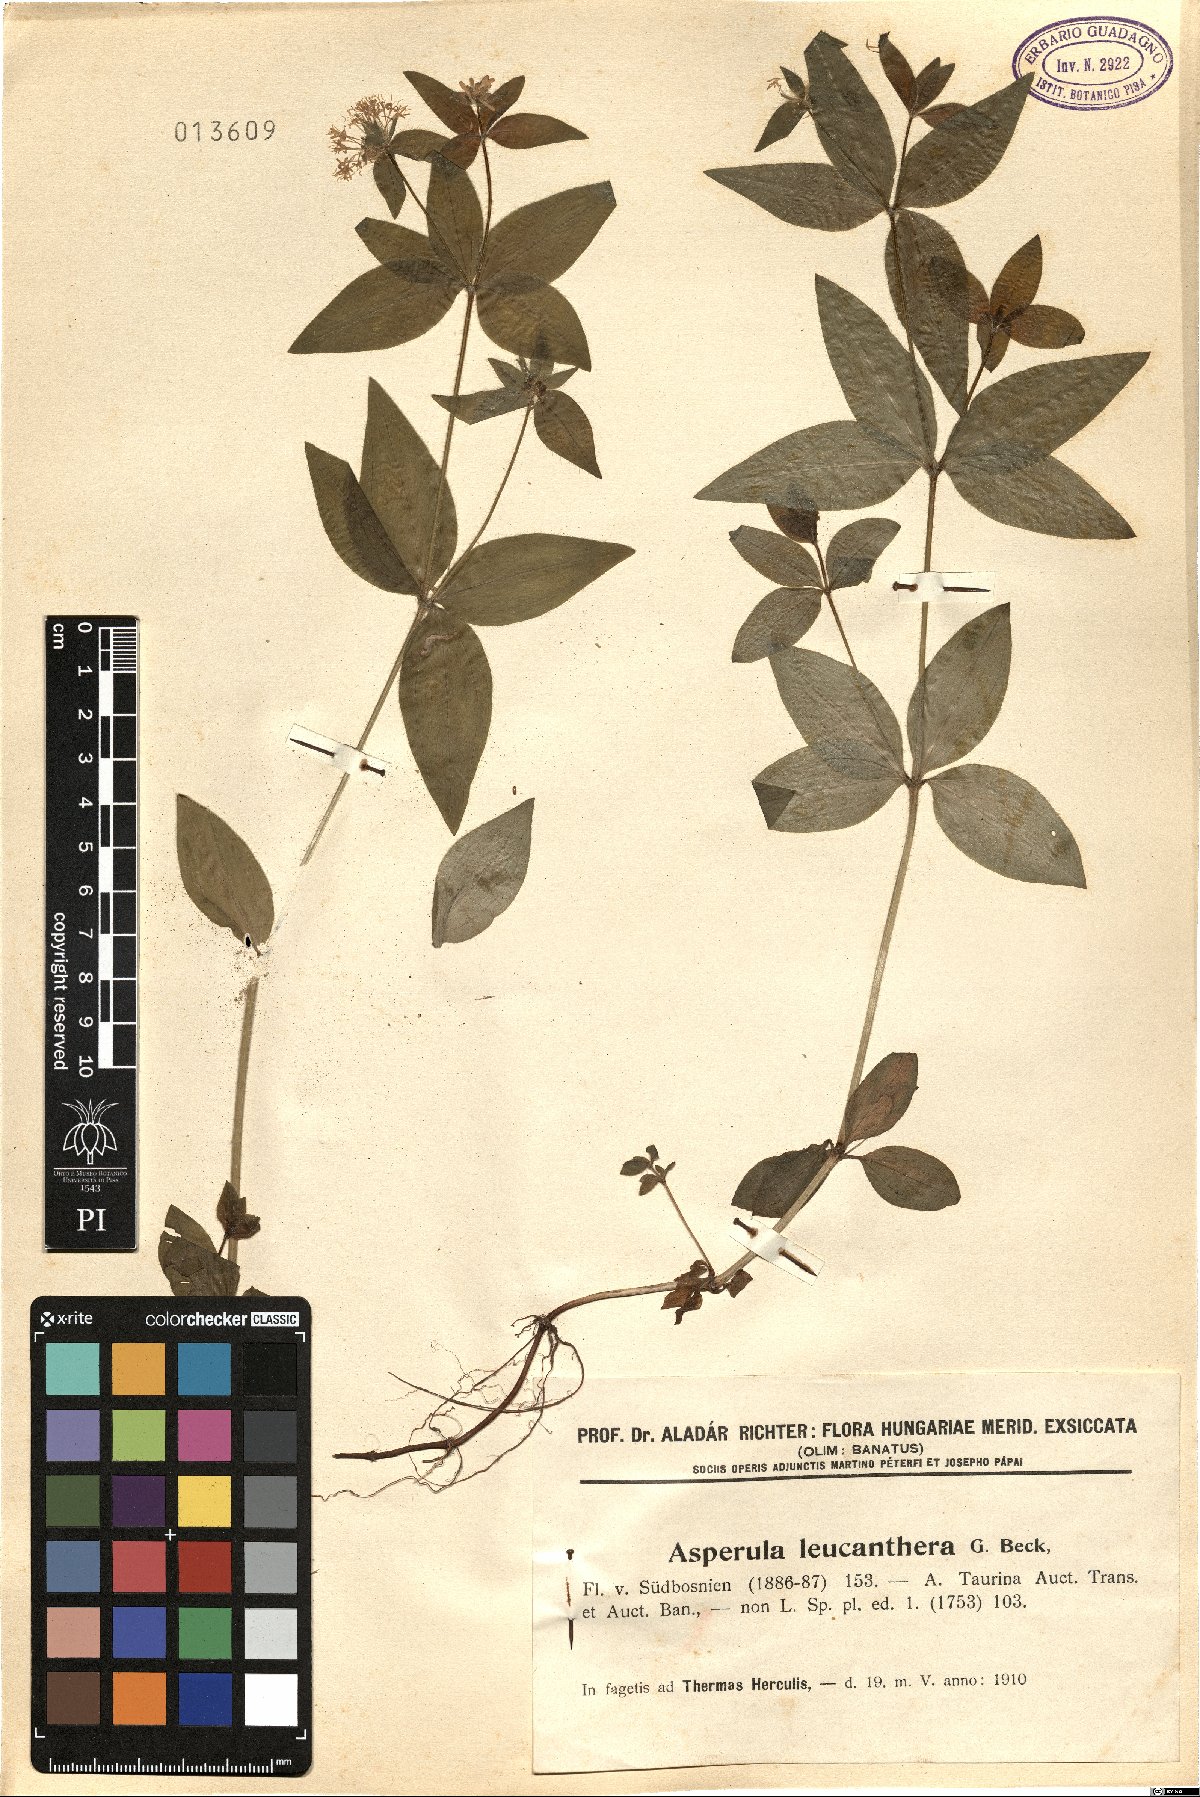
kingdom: Plantae
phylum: Tracheophyta
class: Magnoliopsida
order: Gentianales
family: Rubiaceae
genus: Asperula
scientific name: Asperula
